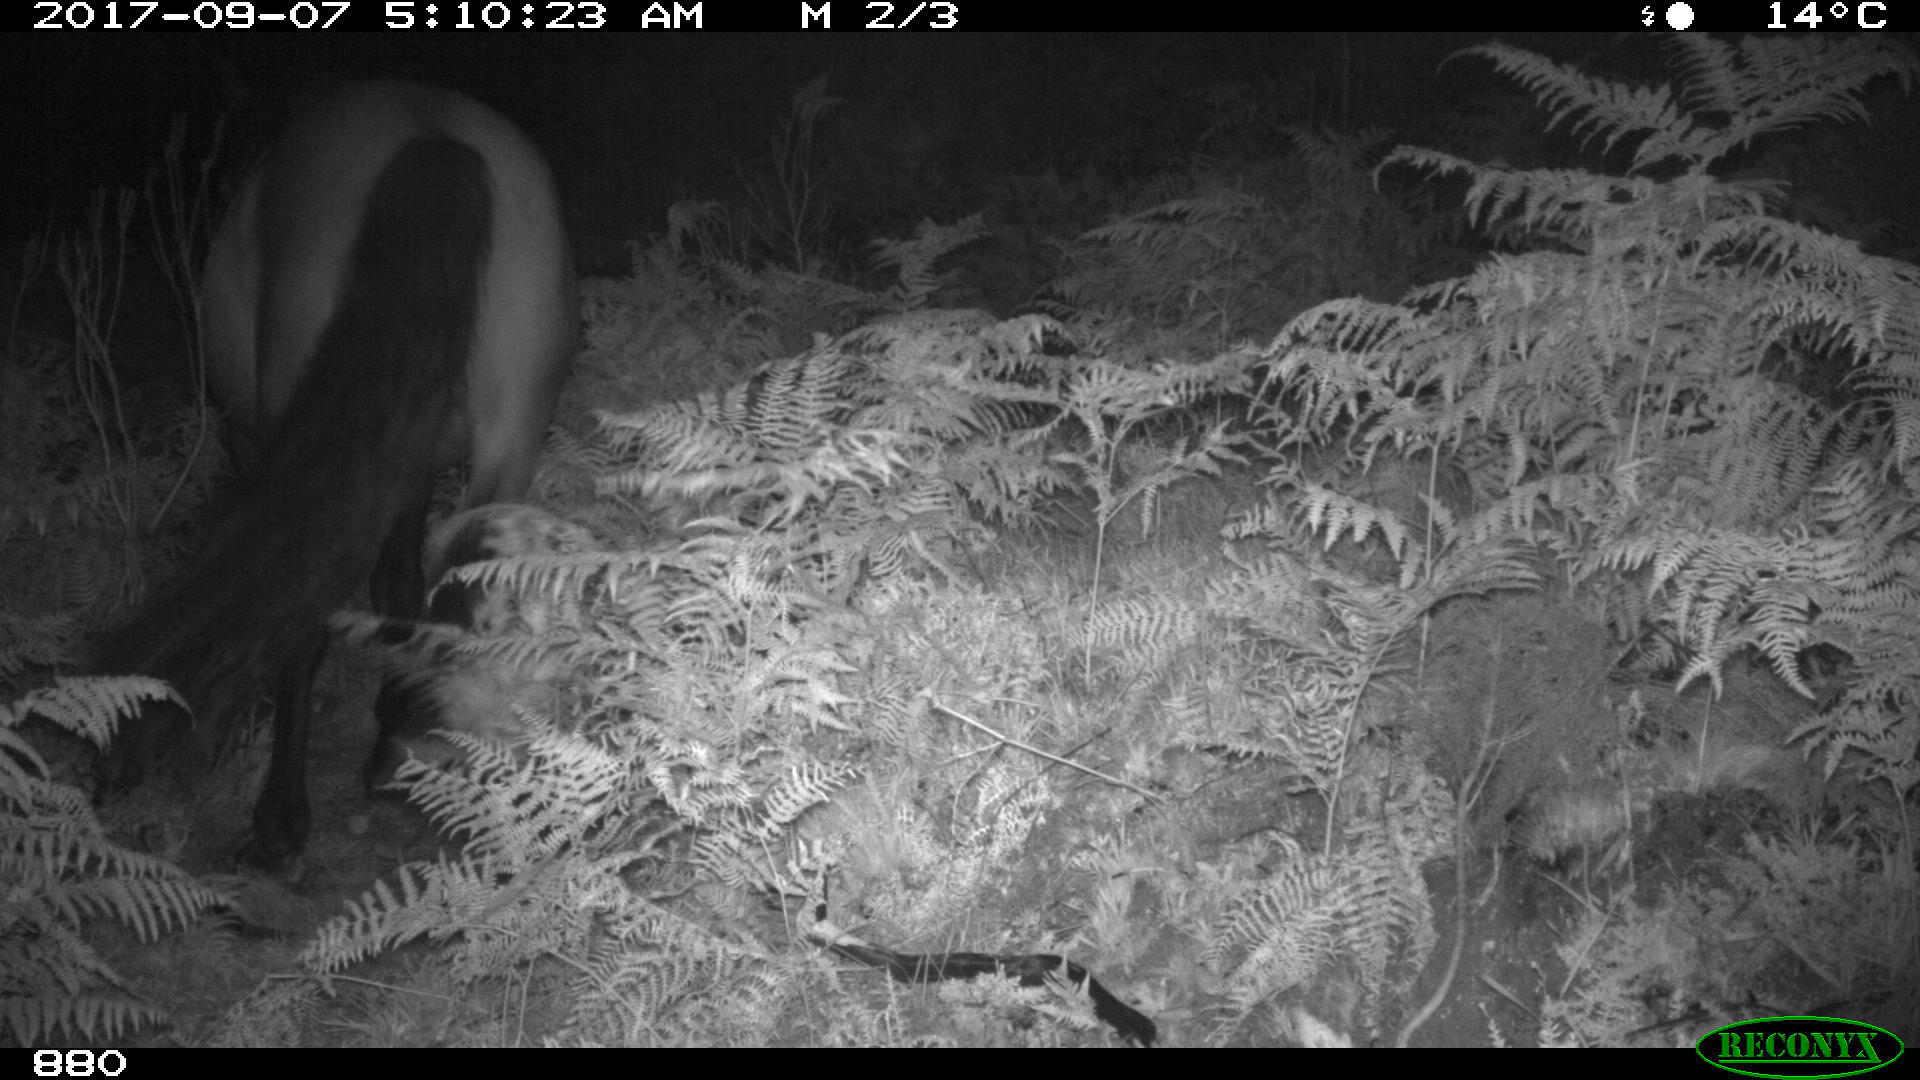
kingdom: Animalia
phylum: Chordata
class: Mammalia
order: Perissodactyla
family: Equidae
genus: Equus
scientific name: Equus caballus
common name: Horse
